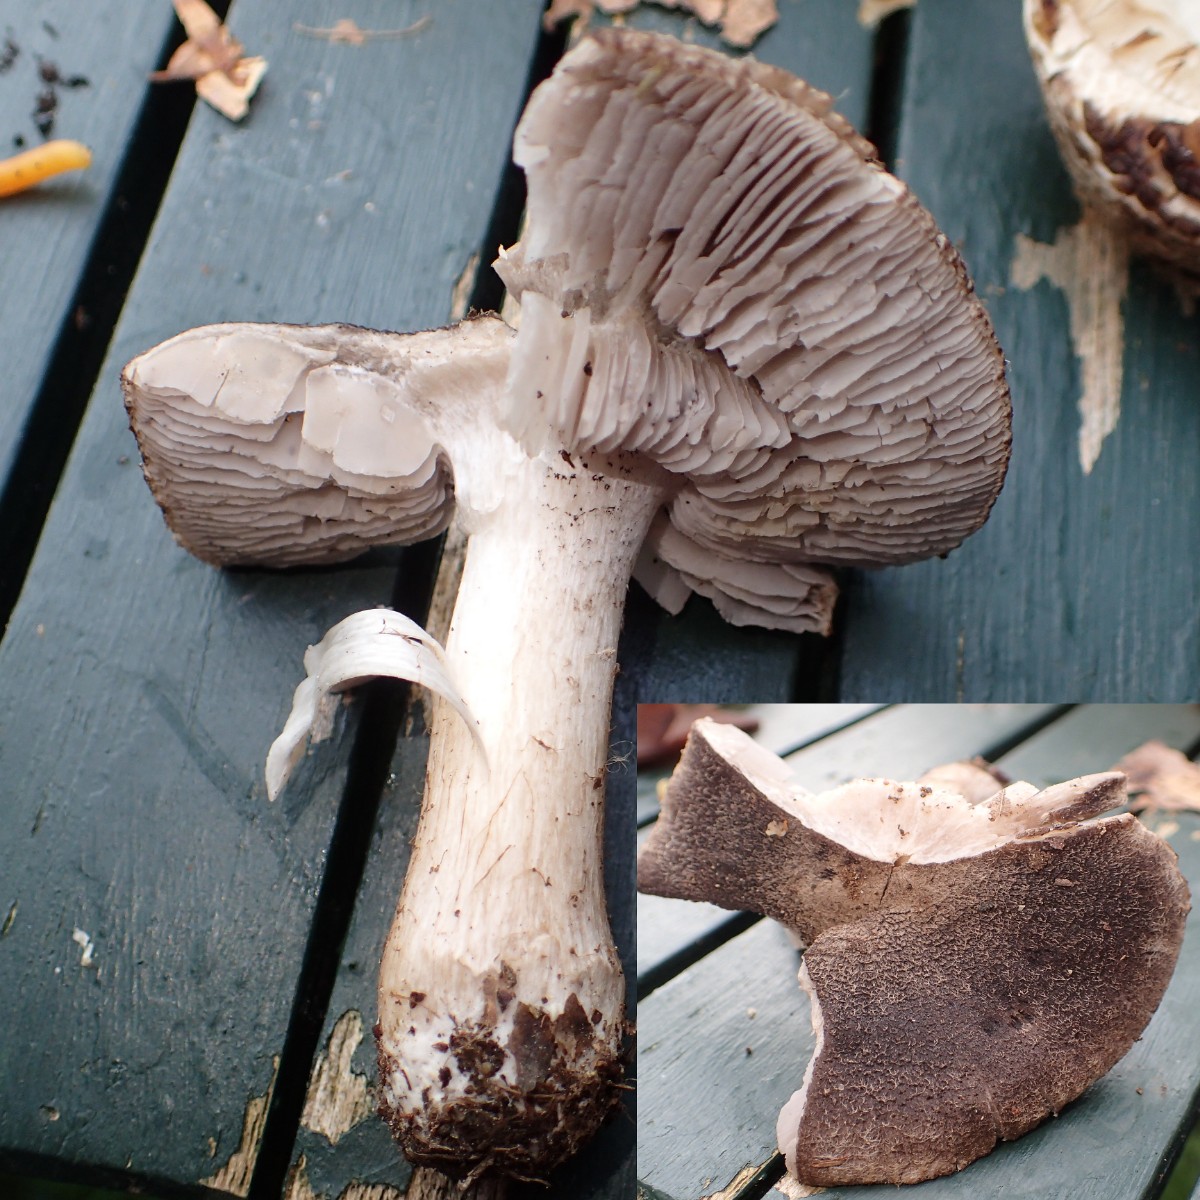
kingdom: Fungi
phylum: Basidiomycota
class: Agaricomycetes
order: Agaricales
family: Tricholomataceae
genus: Tricholoma
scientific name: Tricholoma terreum
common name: jordfarvet ridderhat
